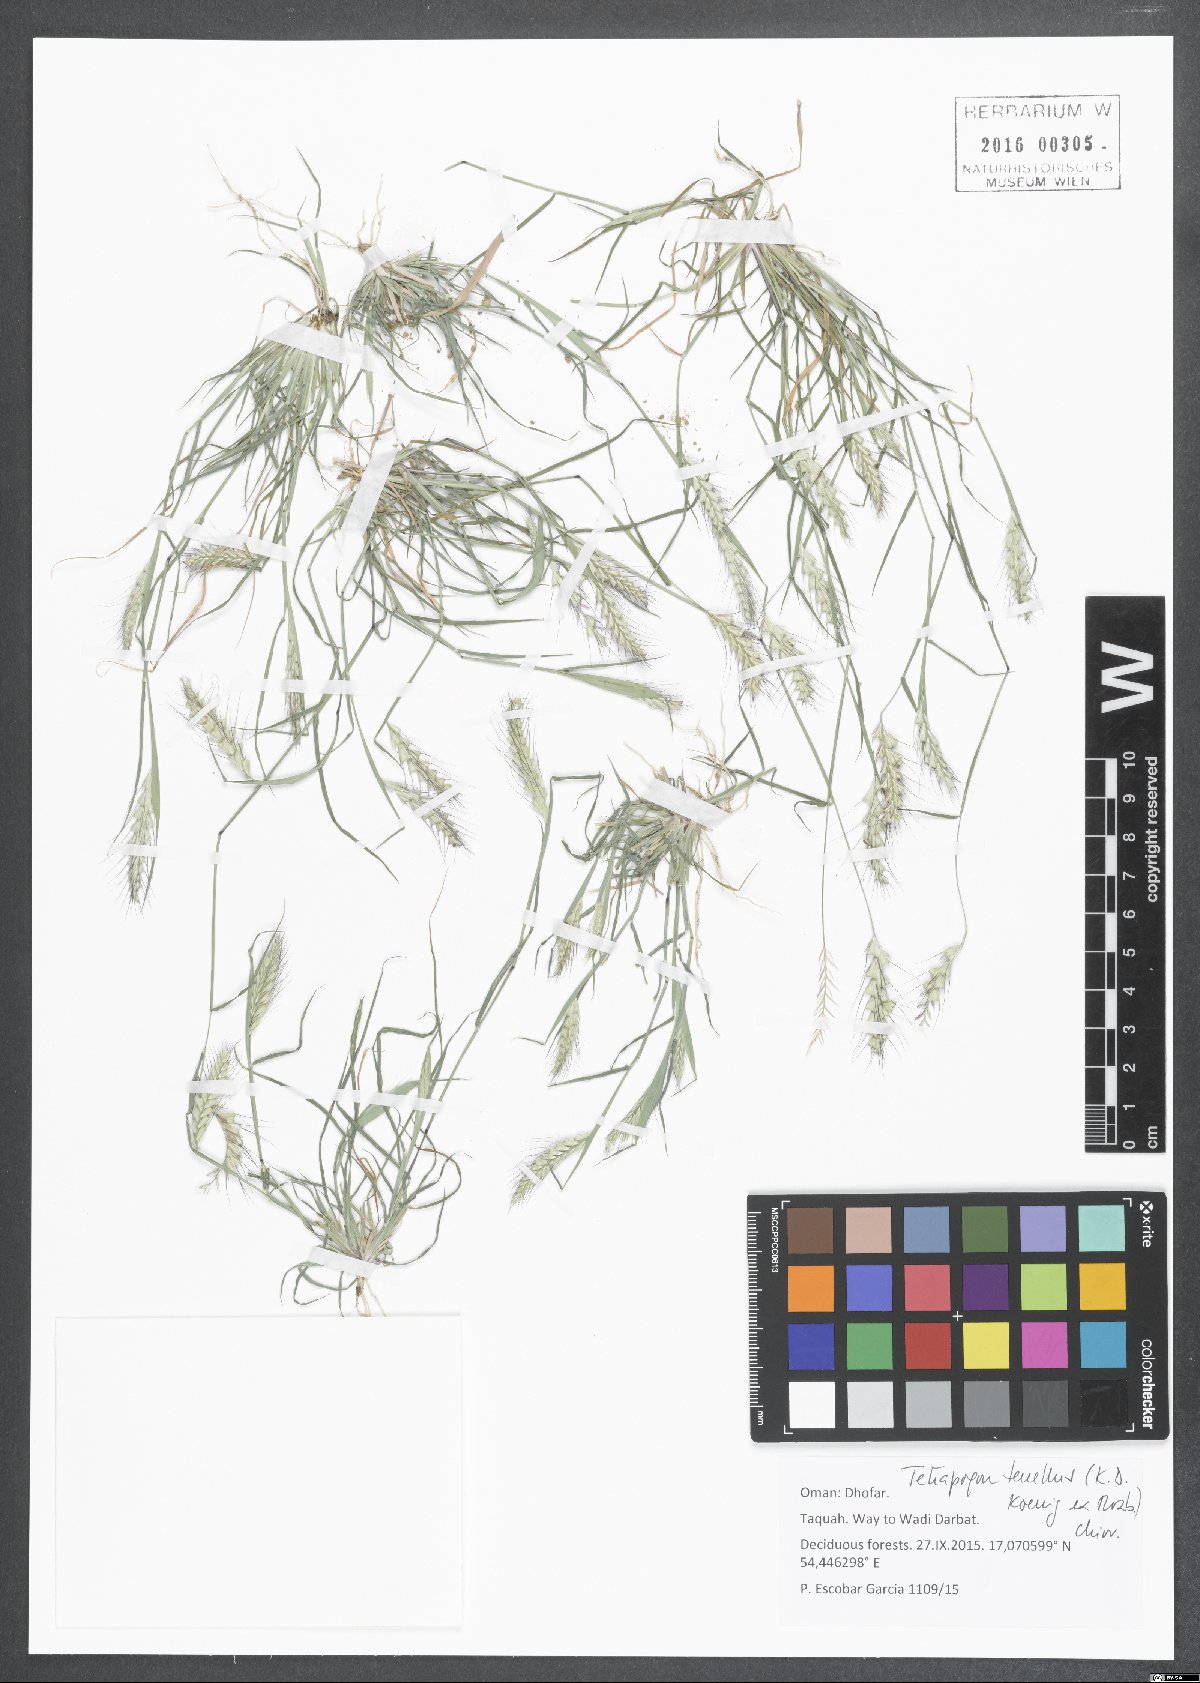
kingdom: Plantae
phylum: Tracheophyta
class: Liliopsida
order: Poales
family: Poaceae
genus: Tetrapogon
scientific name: Tetrapogon tenellus
